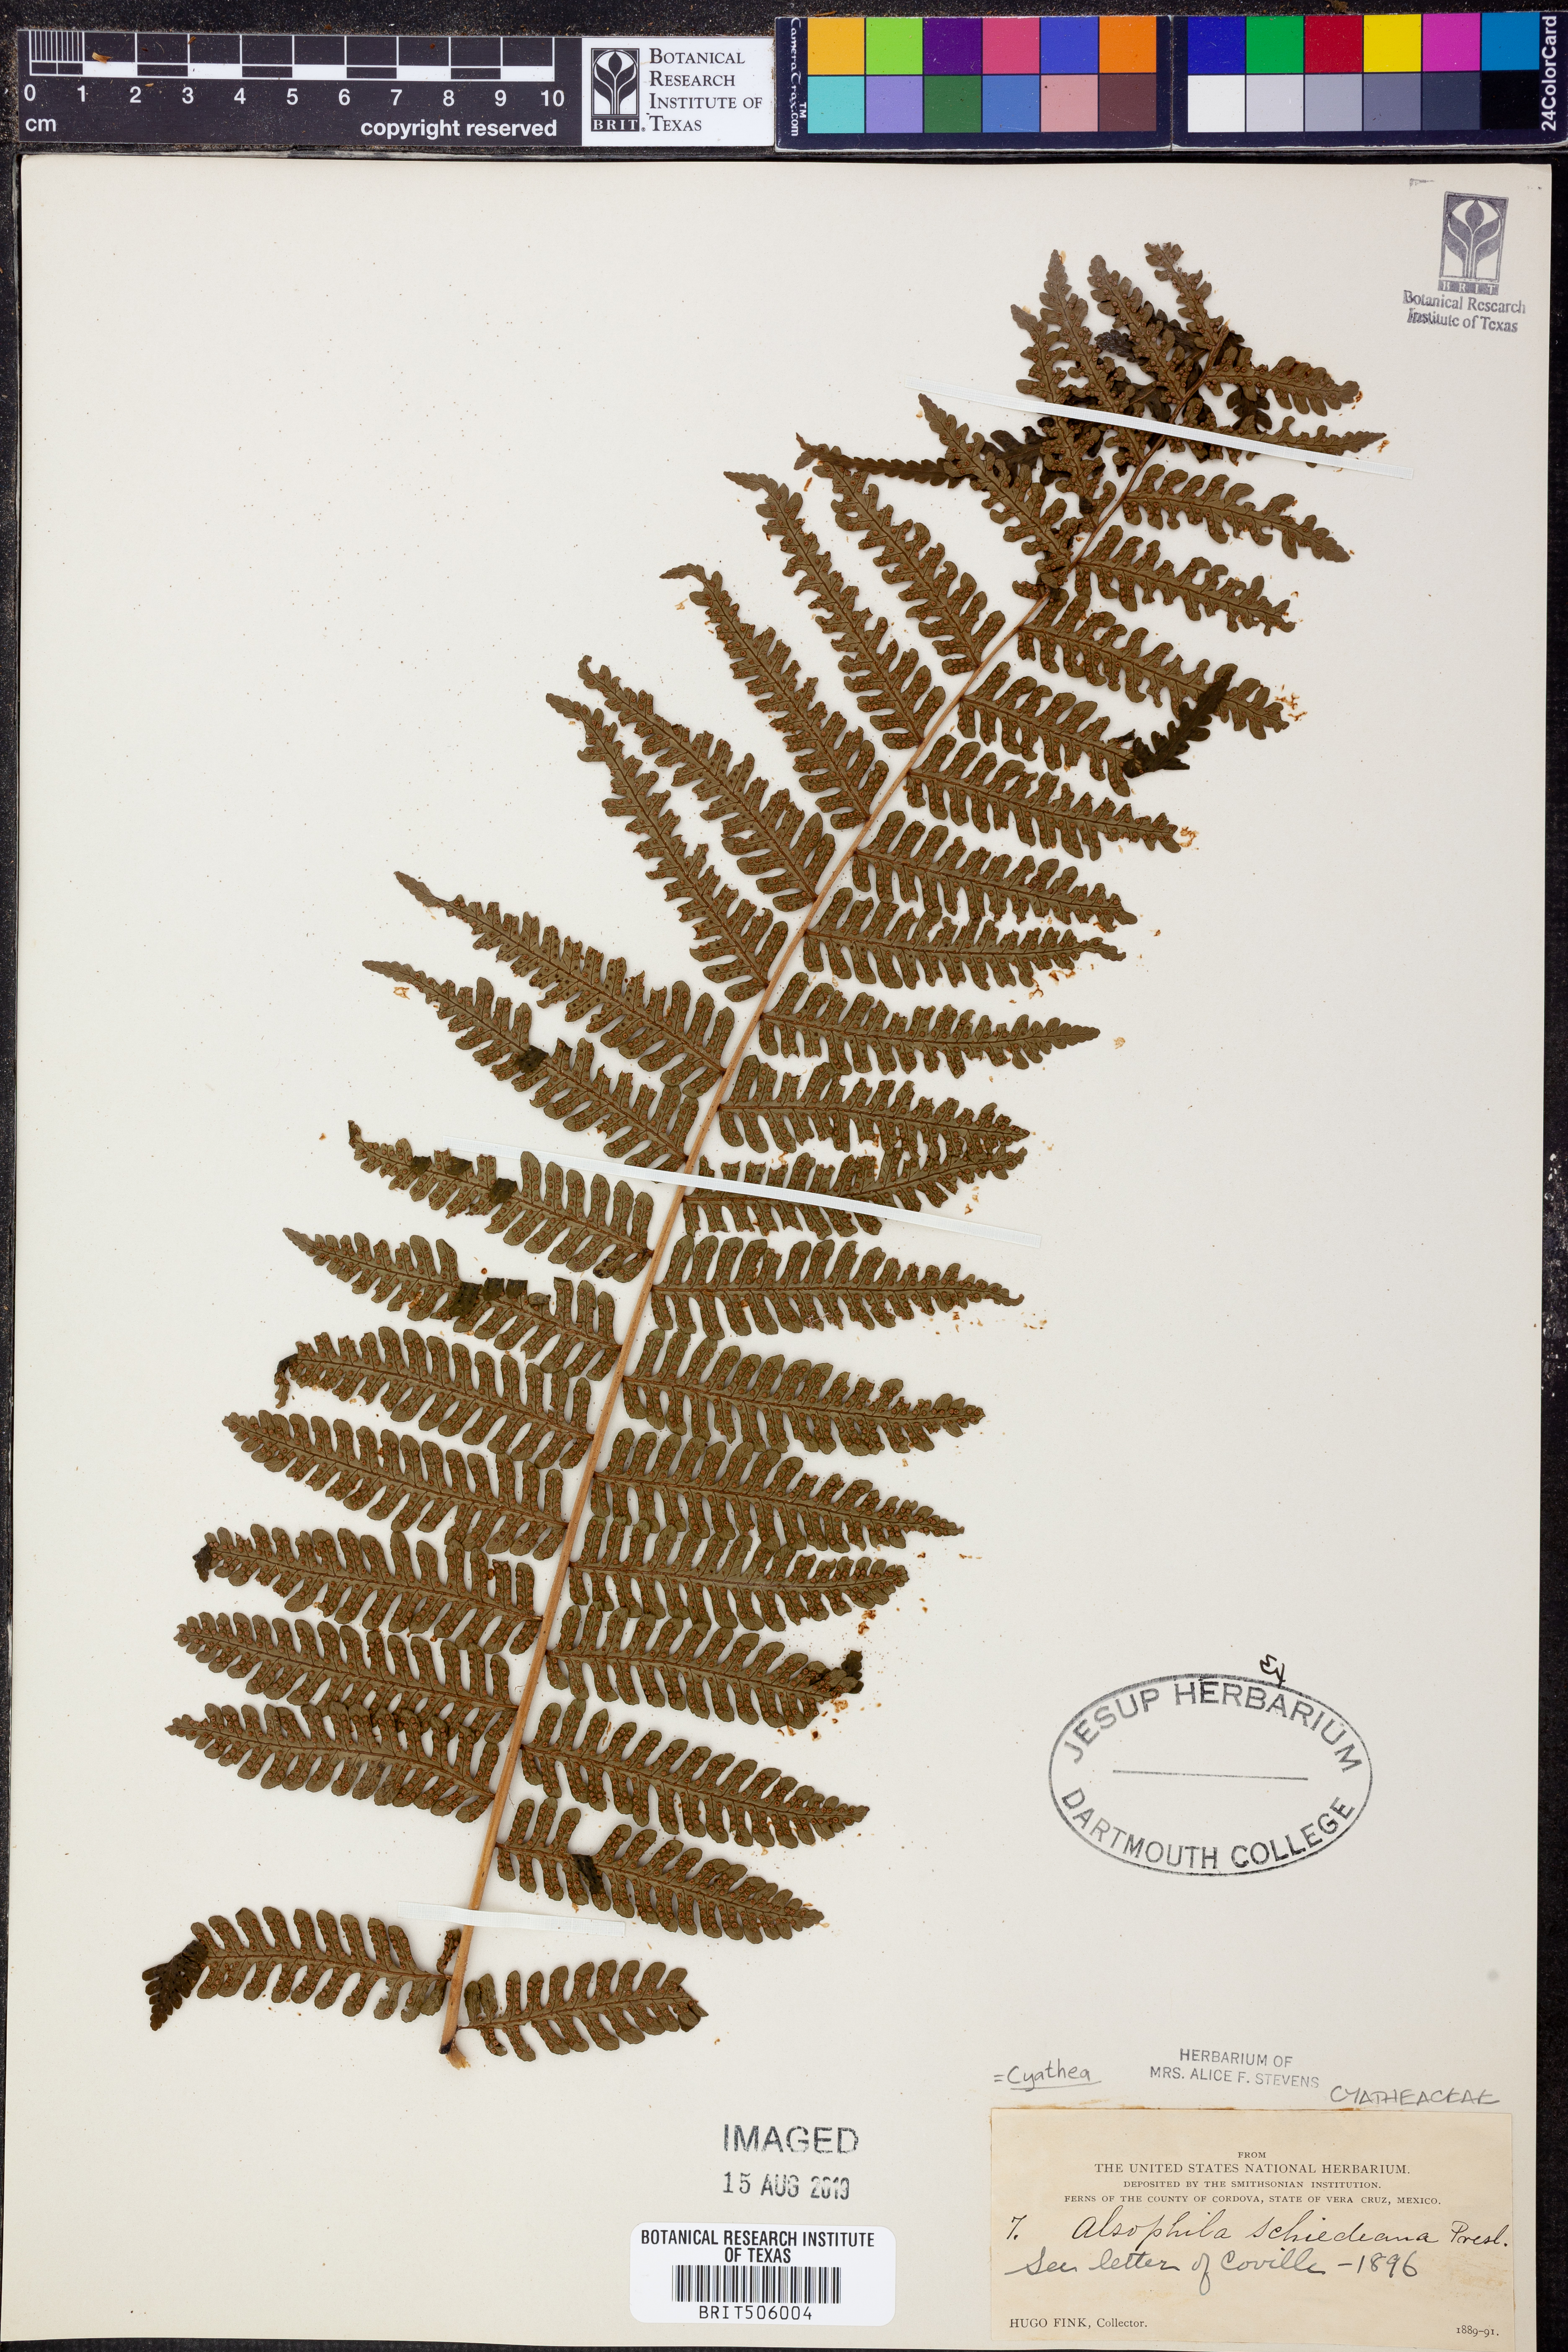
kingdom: Plantae
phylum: Tracheophyta
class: Polypodiopsida
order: Cyatheales
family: Cyatheaceae
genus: Cyathea
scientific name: Cyathea schiedeana
